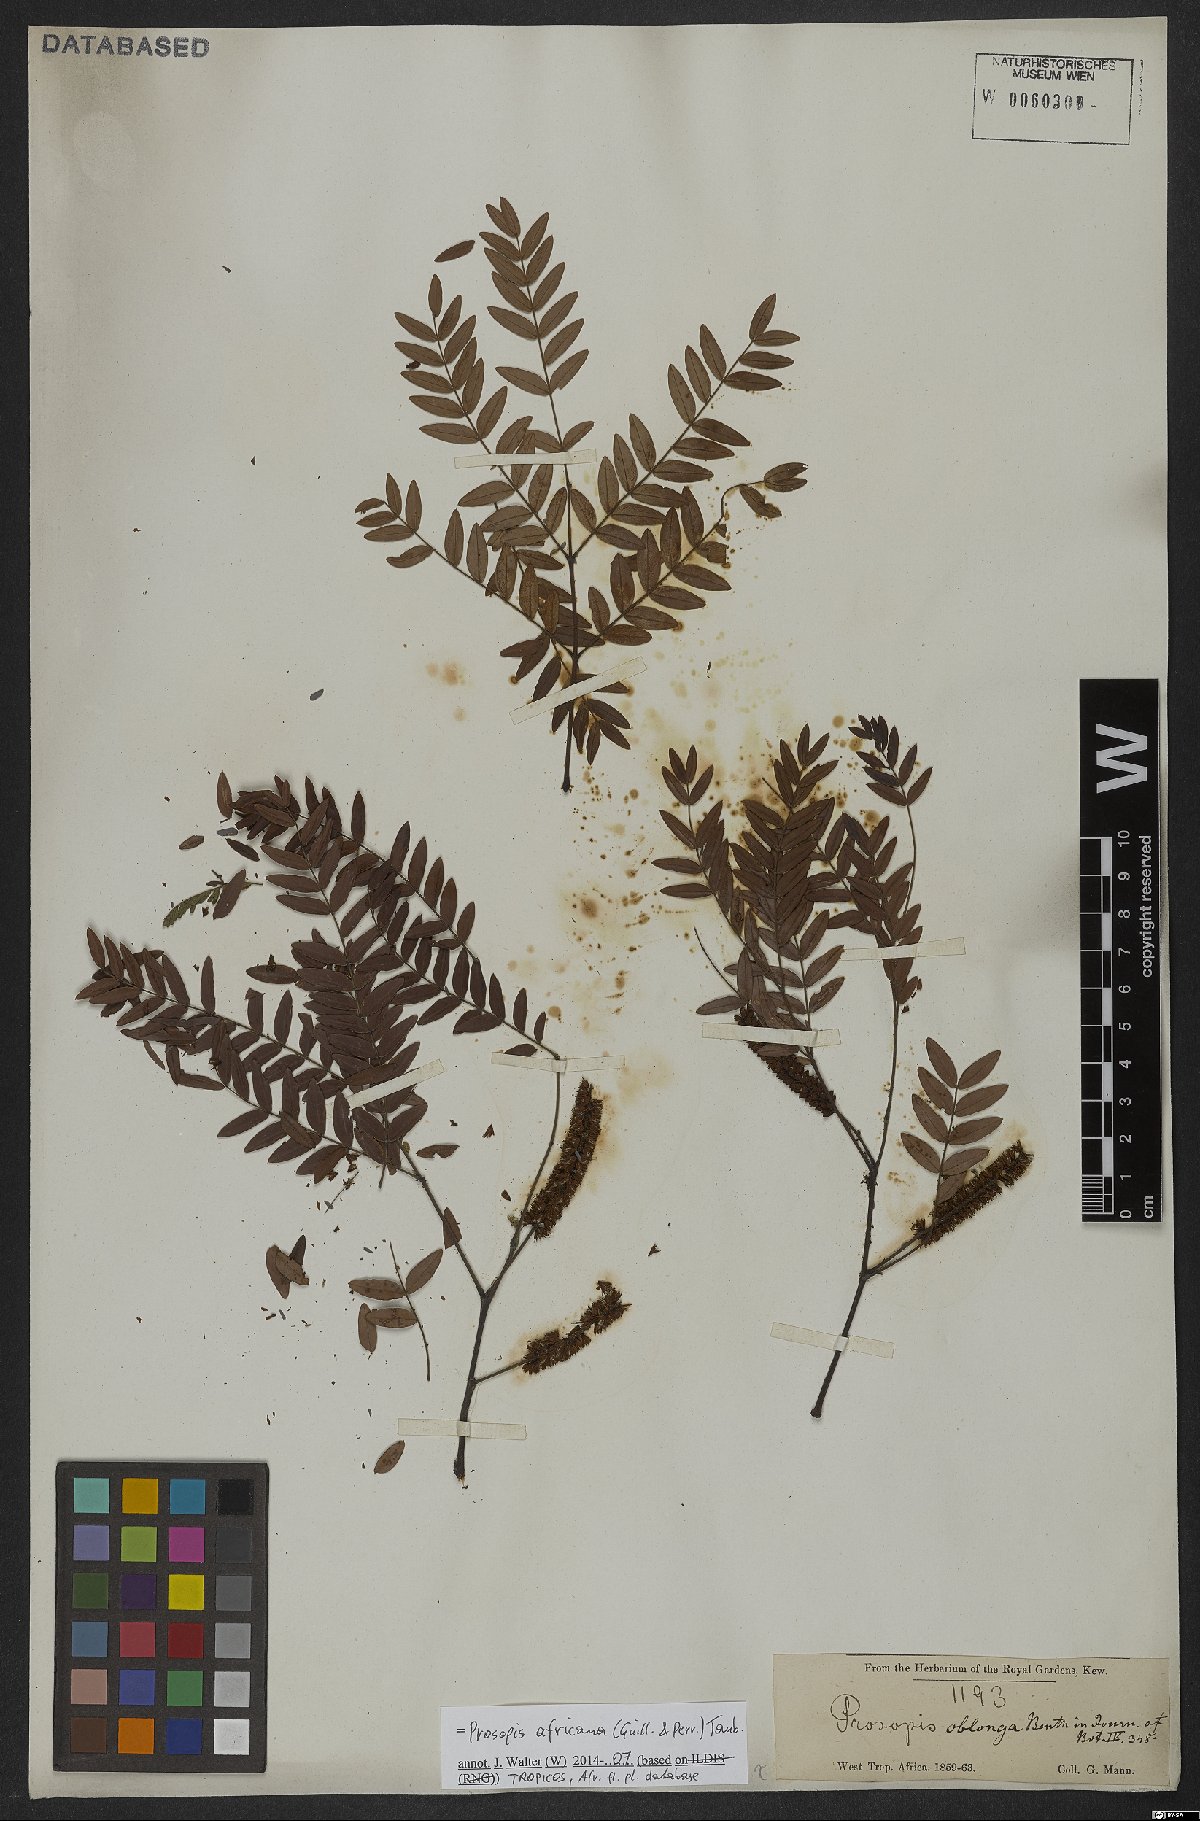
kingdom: Plantae
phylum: Tracheophyta
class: Magnoliopsida
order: Fabales
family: Fabaceae
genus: Prosopis
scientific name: Prosopis africana
